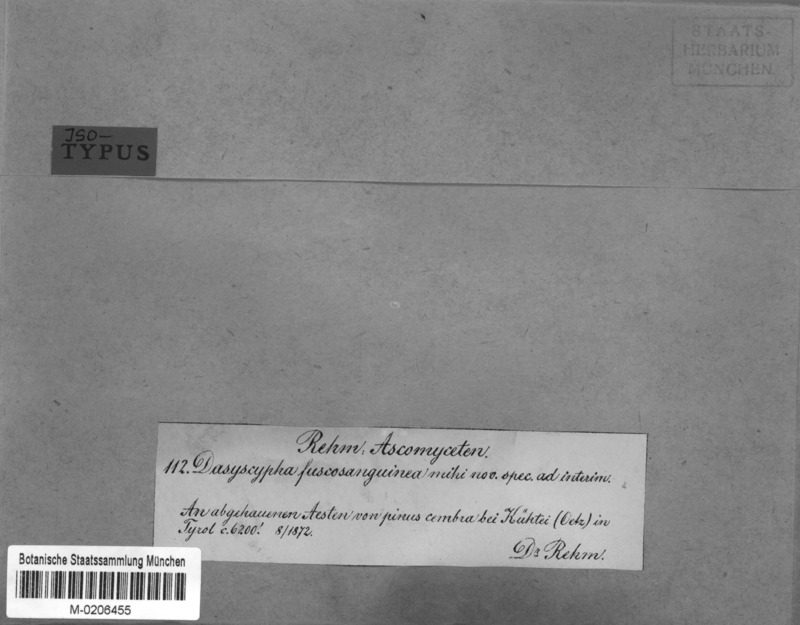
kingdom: Fungi
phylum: Ascomycota
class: Leotiomycetes
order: Helotiales
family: Lachnaceae
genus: Lachnellula
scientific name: Lachnellula fuscosanguinea
